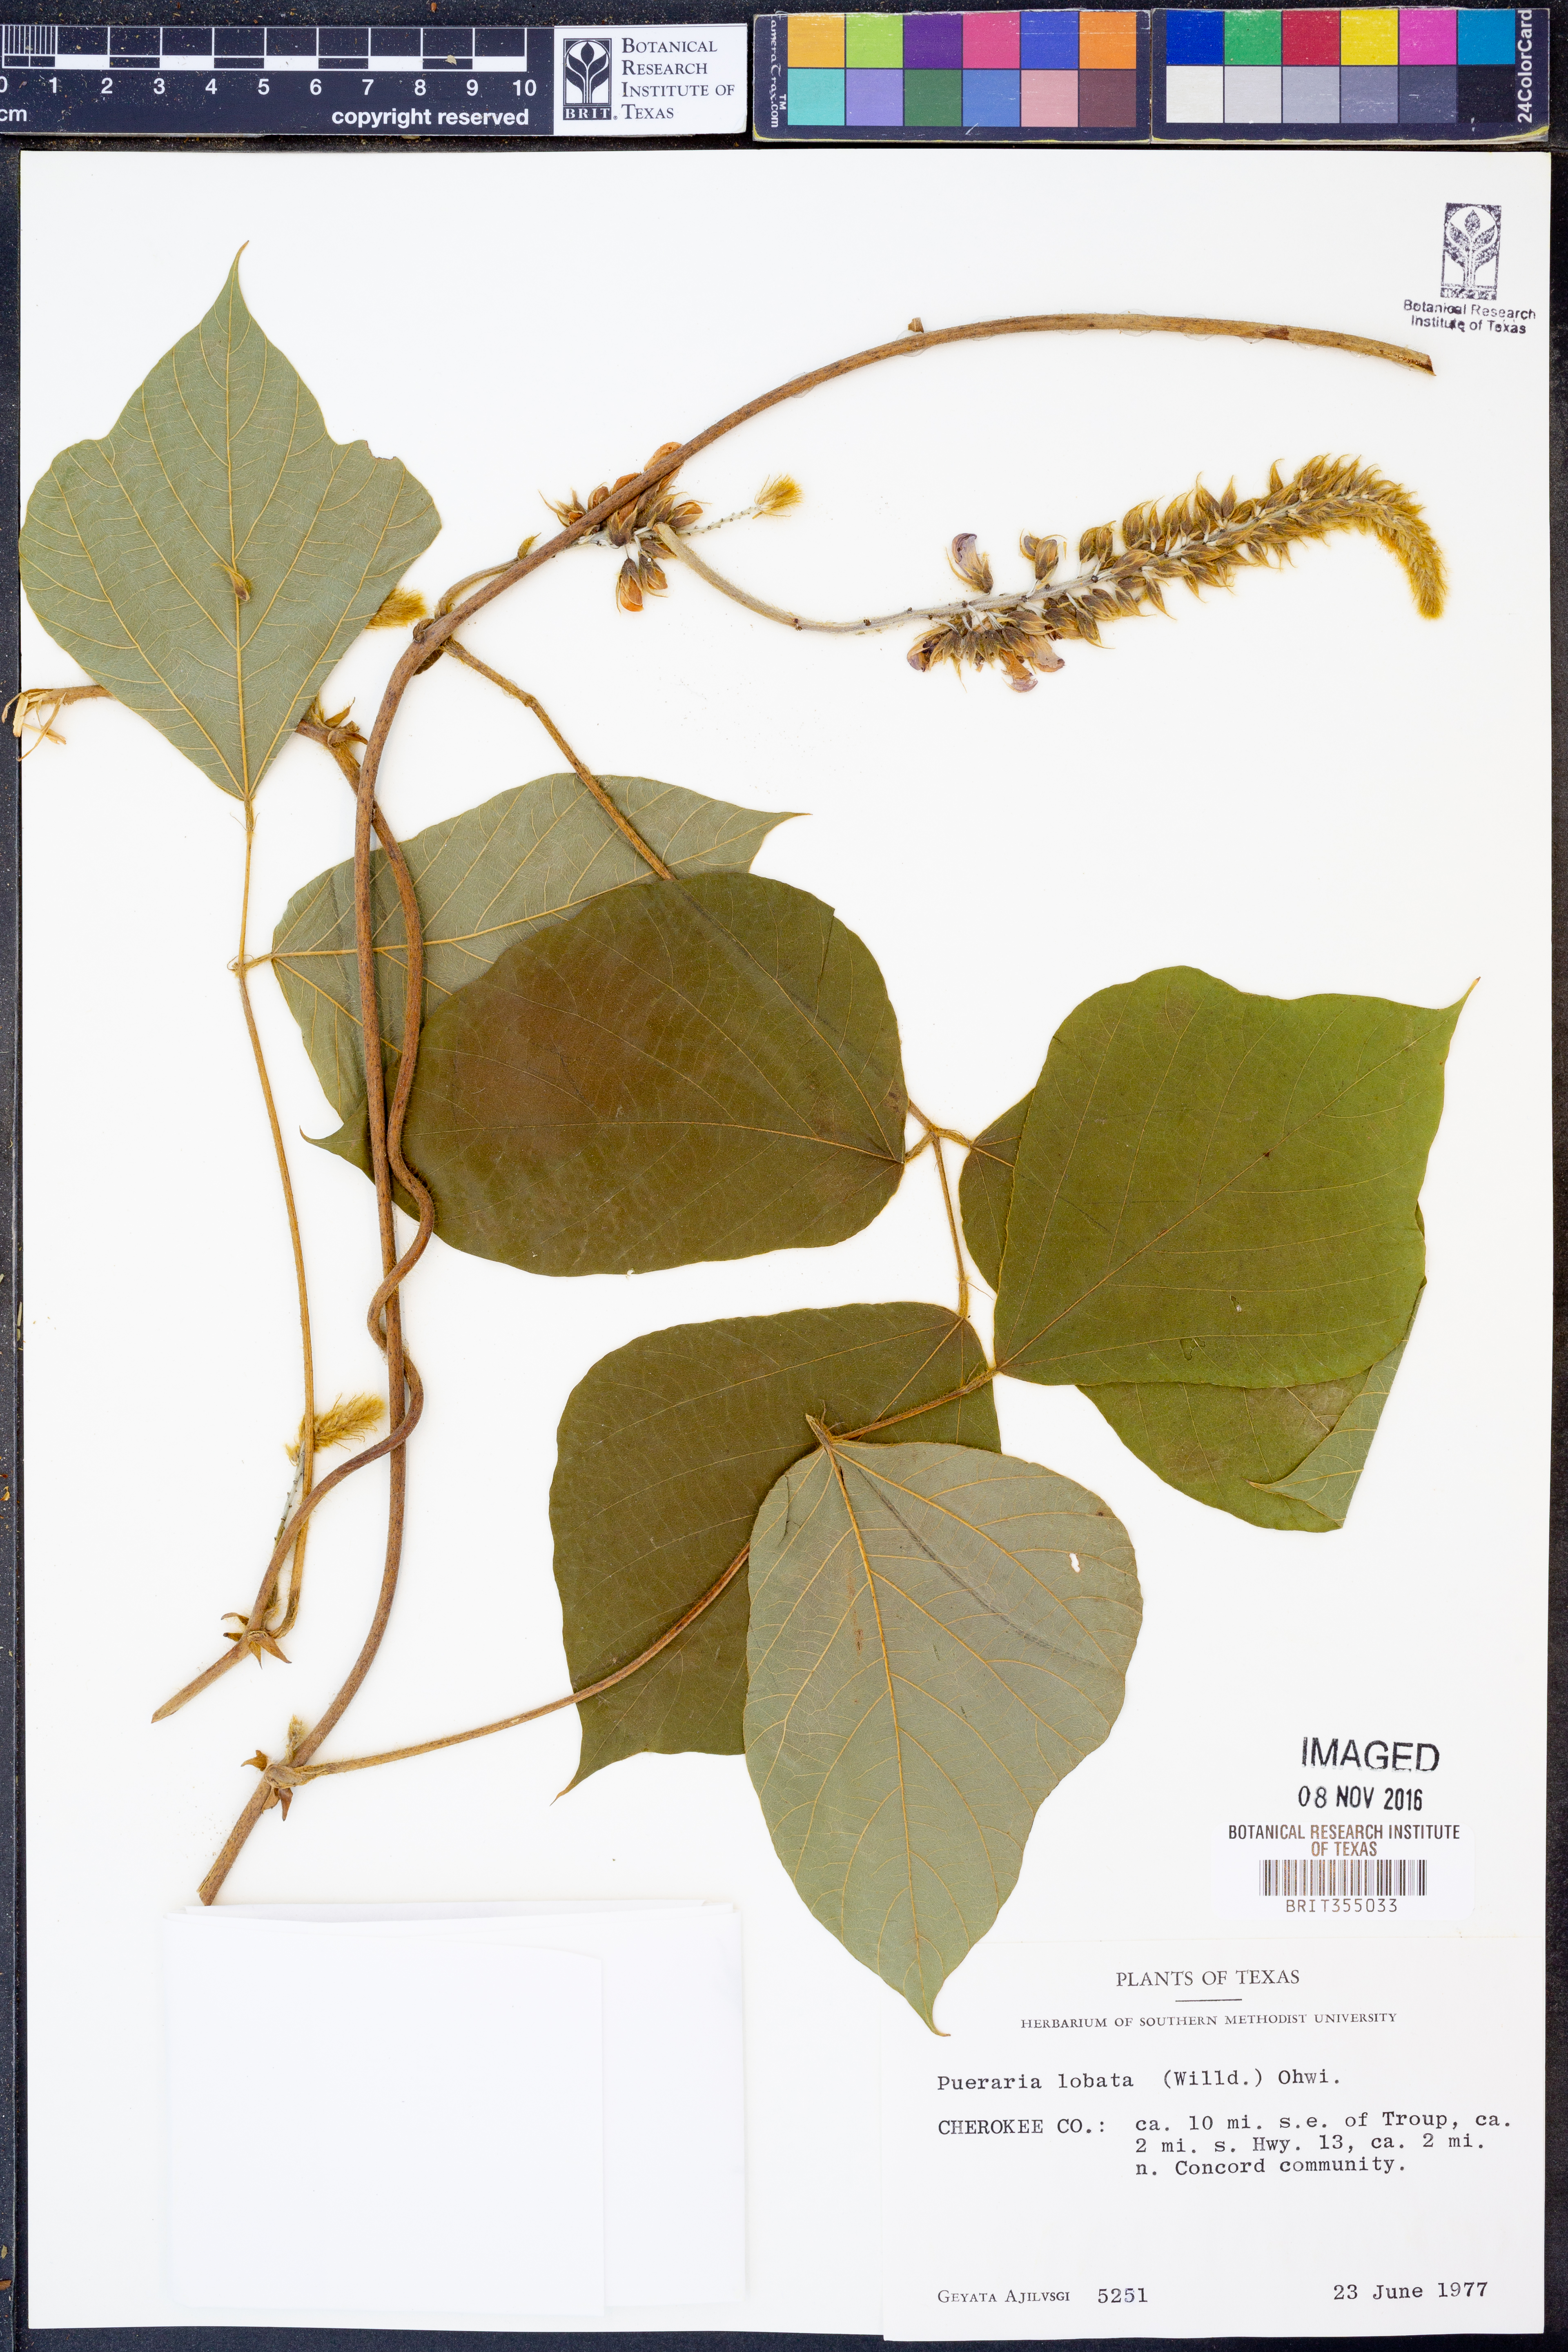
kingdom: Plantae
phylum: Tracheophyta
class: Magnoliopsida
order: Fabales
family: Fabaceae
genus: Pueraria
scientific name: Pueraria montana
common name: Kudzu
